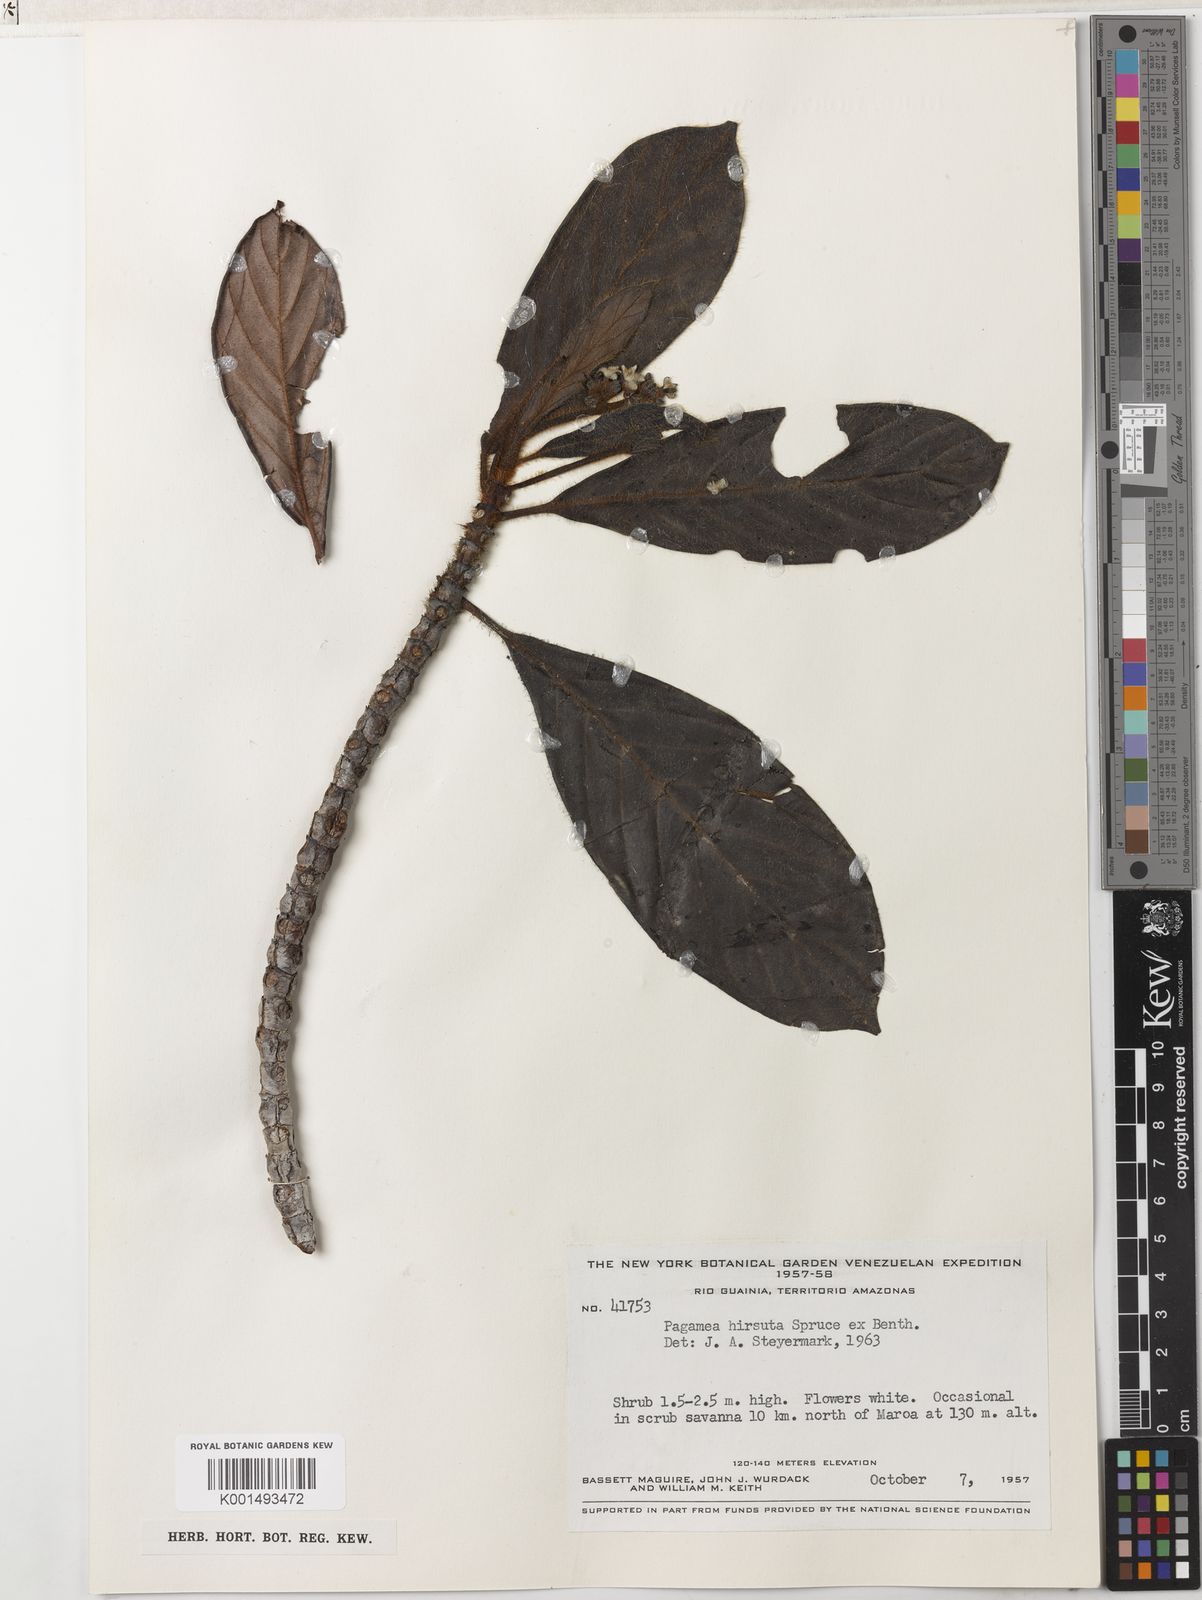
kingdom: Plantae
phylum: Tracheophyta
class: Magnoliopsida
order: Gentianales
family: Rubiaceae
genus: Pagamea
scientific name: Pagamea hirsuta
